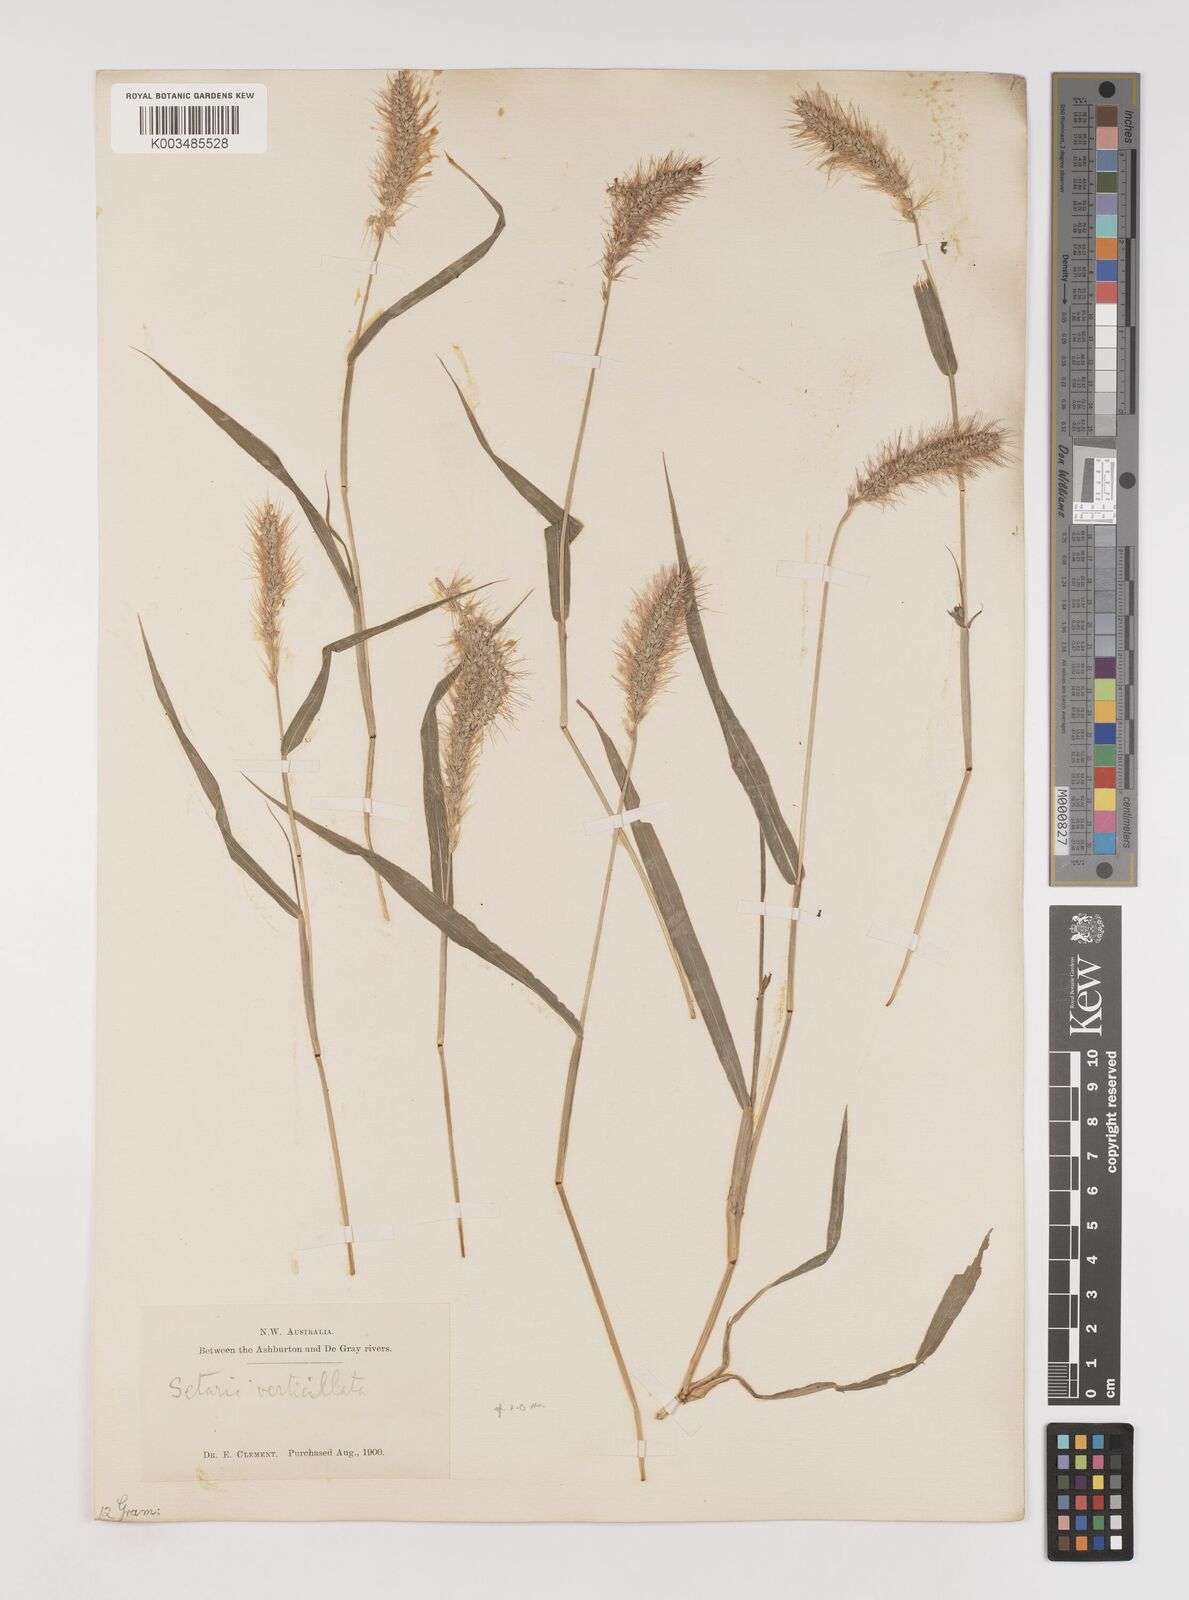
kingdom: Plantae
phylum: Tracheophyta
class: Liliopsida
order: Poales
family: Poaceae
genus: Setaria
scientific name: Setaria verticillata
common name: Hooked bristlegrass
